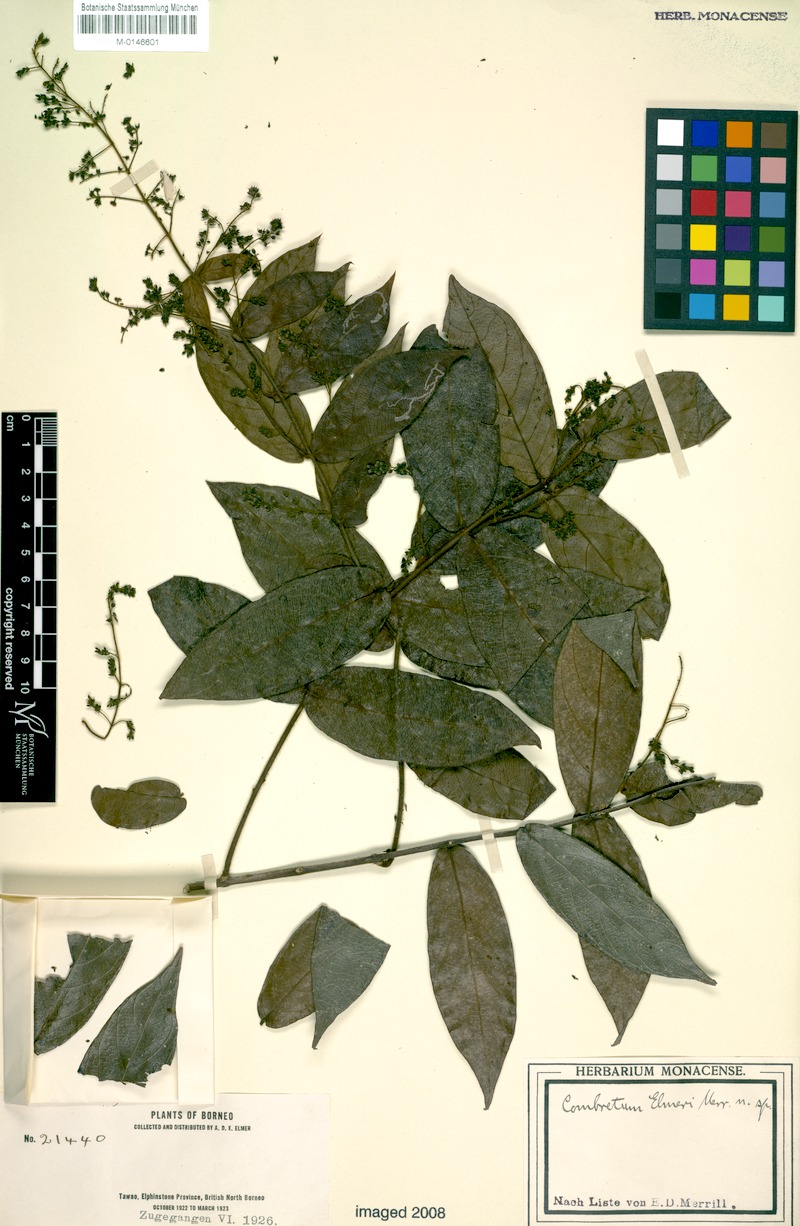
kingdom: Plantae
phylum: Tracheophyta
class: Magnoliopsida
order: Myrtales
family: Combretaceae
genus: Combretum
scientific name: Combretum nigrescens
